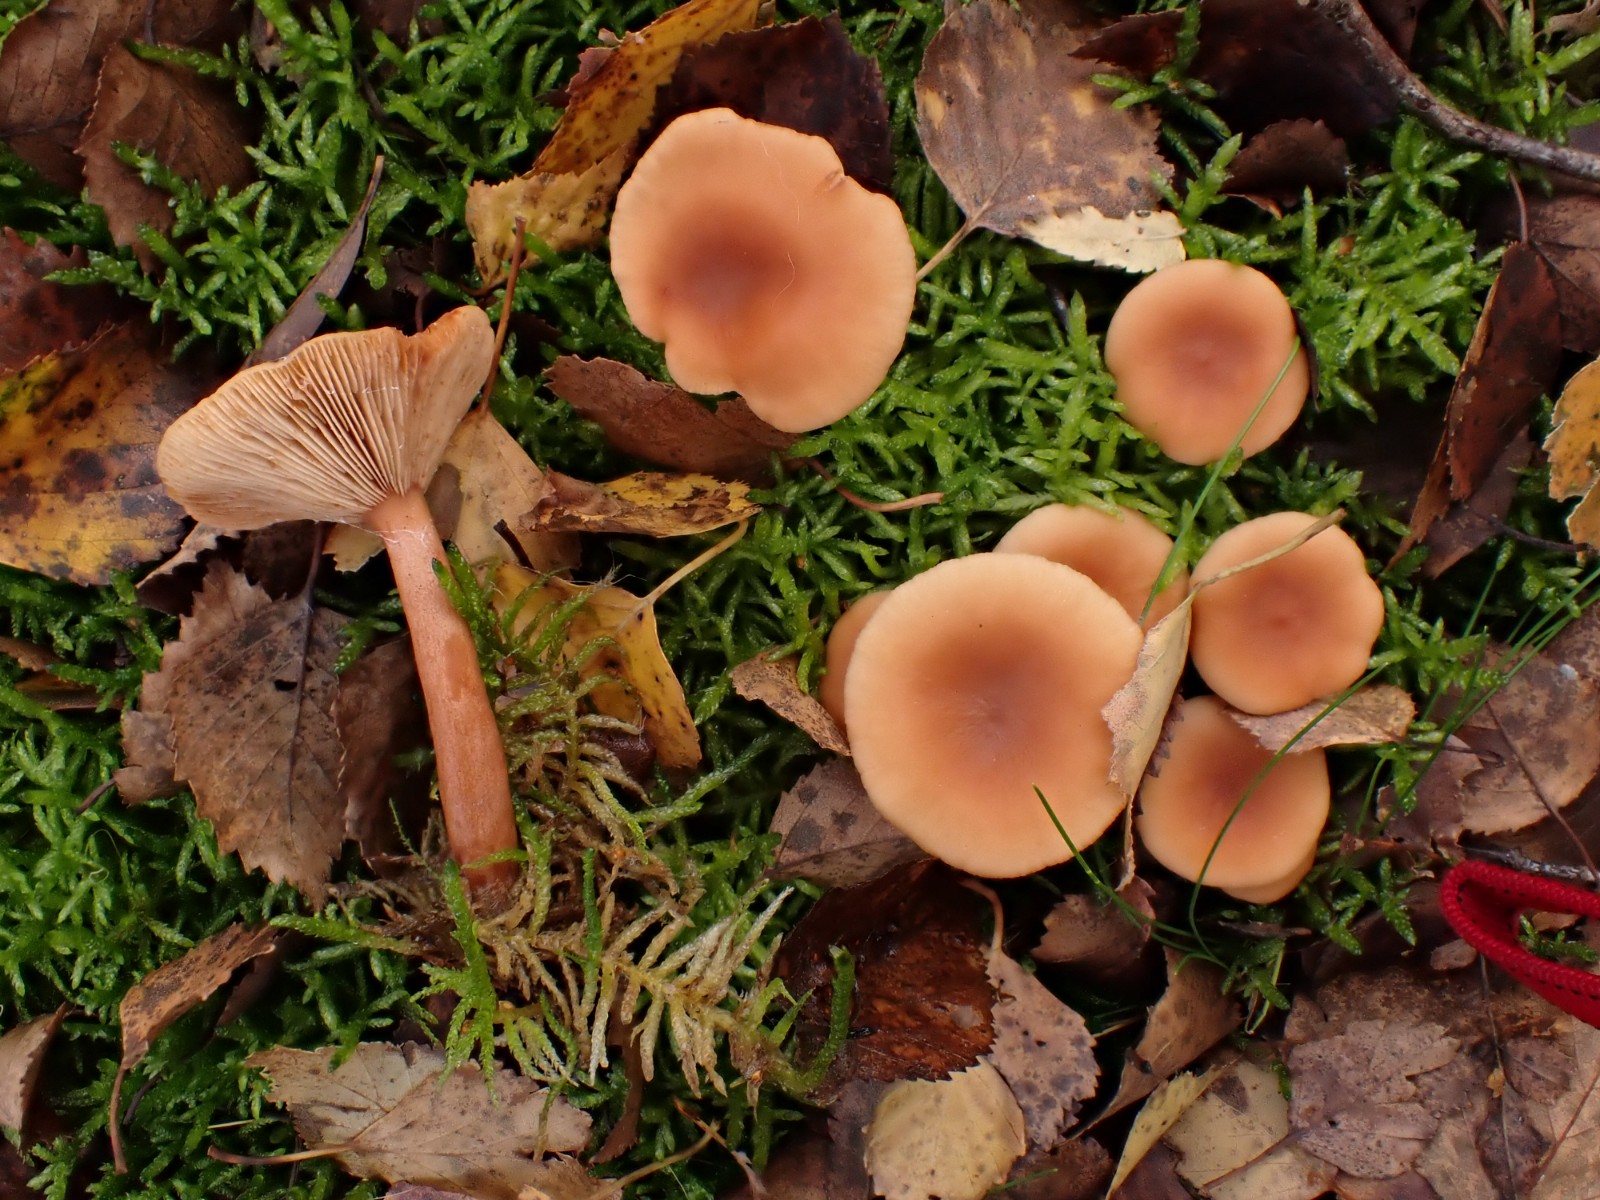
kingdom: Fungi
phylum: Basidiomycota
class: Agaricomycetes
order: Russulales
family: Russulaceae
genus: Lactarius
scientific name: Lactarius tabidus
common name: rynket mælkehat
